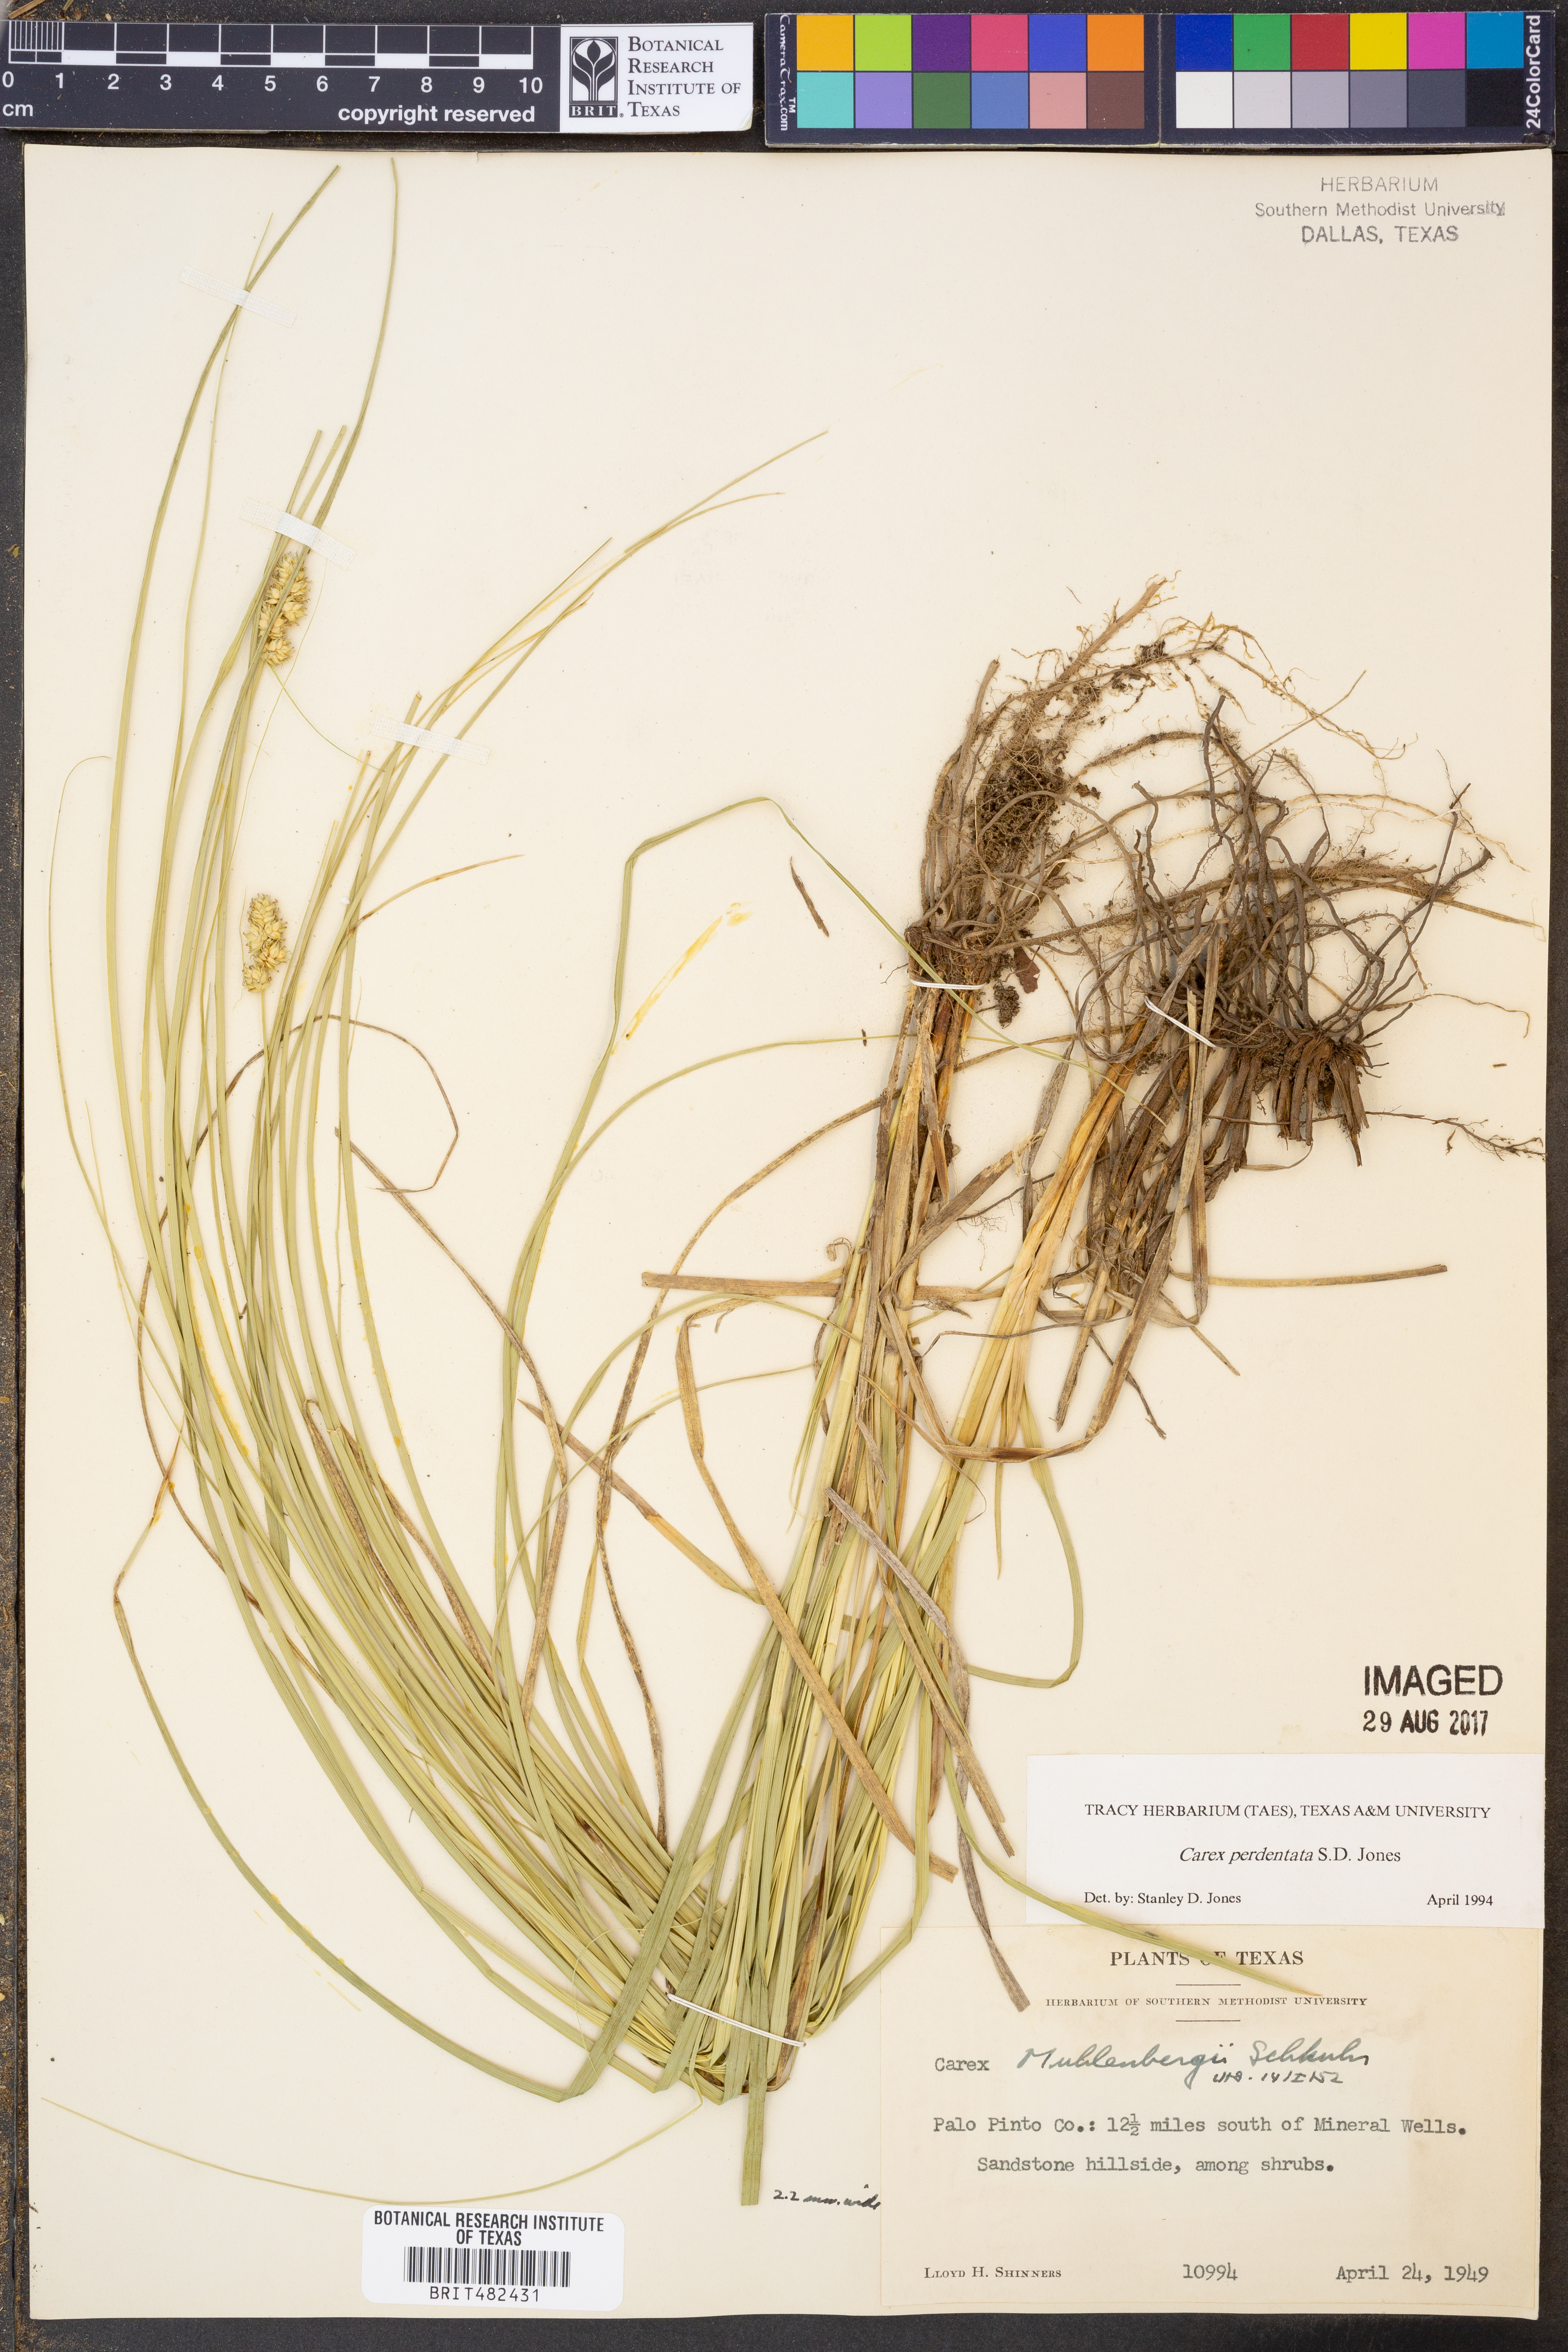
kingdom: Plantae
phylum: Tracheophyta
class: Liliopsida
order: Poales
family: Cyperaceae
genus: Carex
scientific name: Carex perdentata
